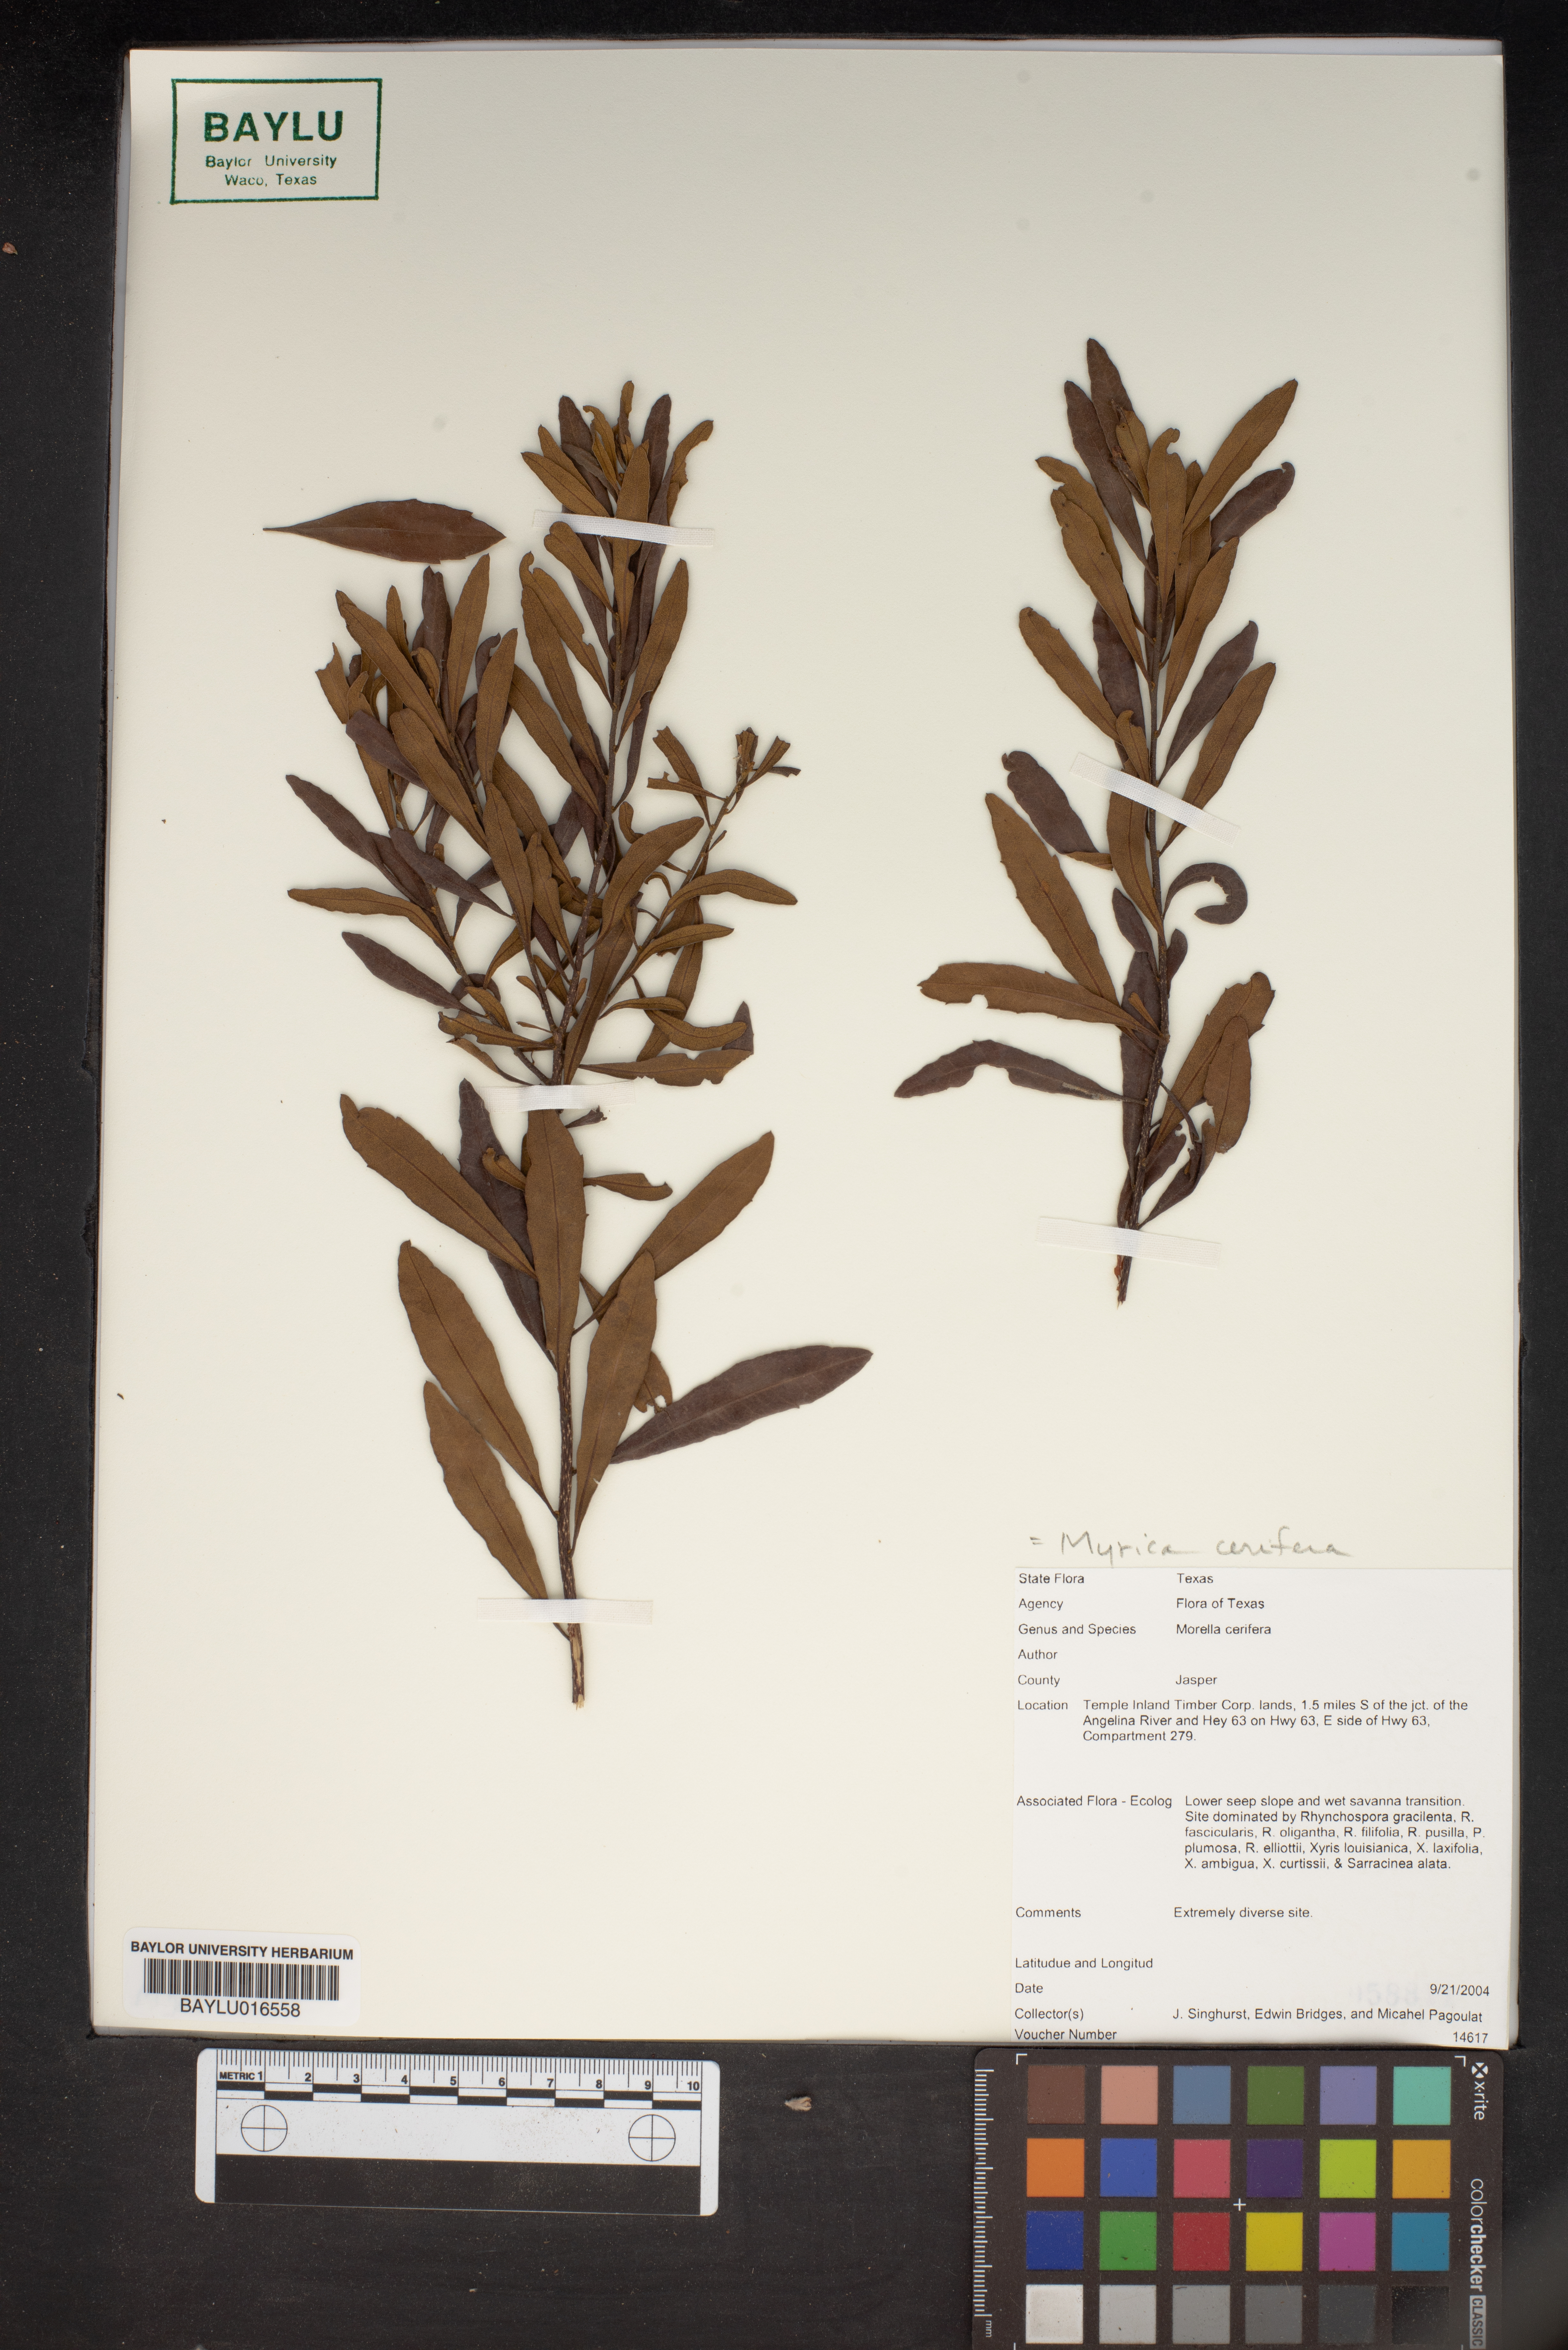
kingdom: Plantae
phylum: Tracheophyta
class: Magnoliopsida
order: Fagales
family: Myricaceae
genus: Morella
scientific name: Morella cerifera
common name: Wax myrtle
